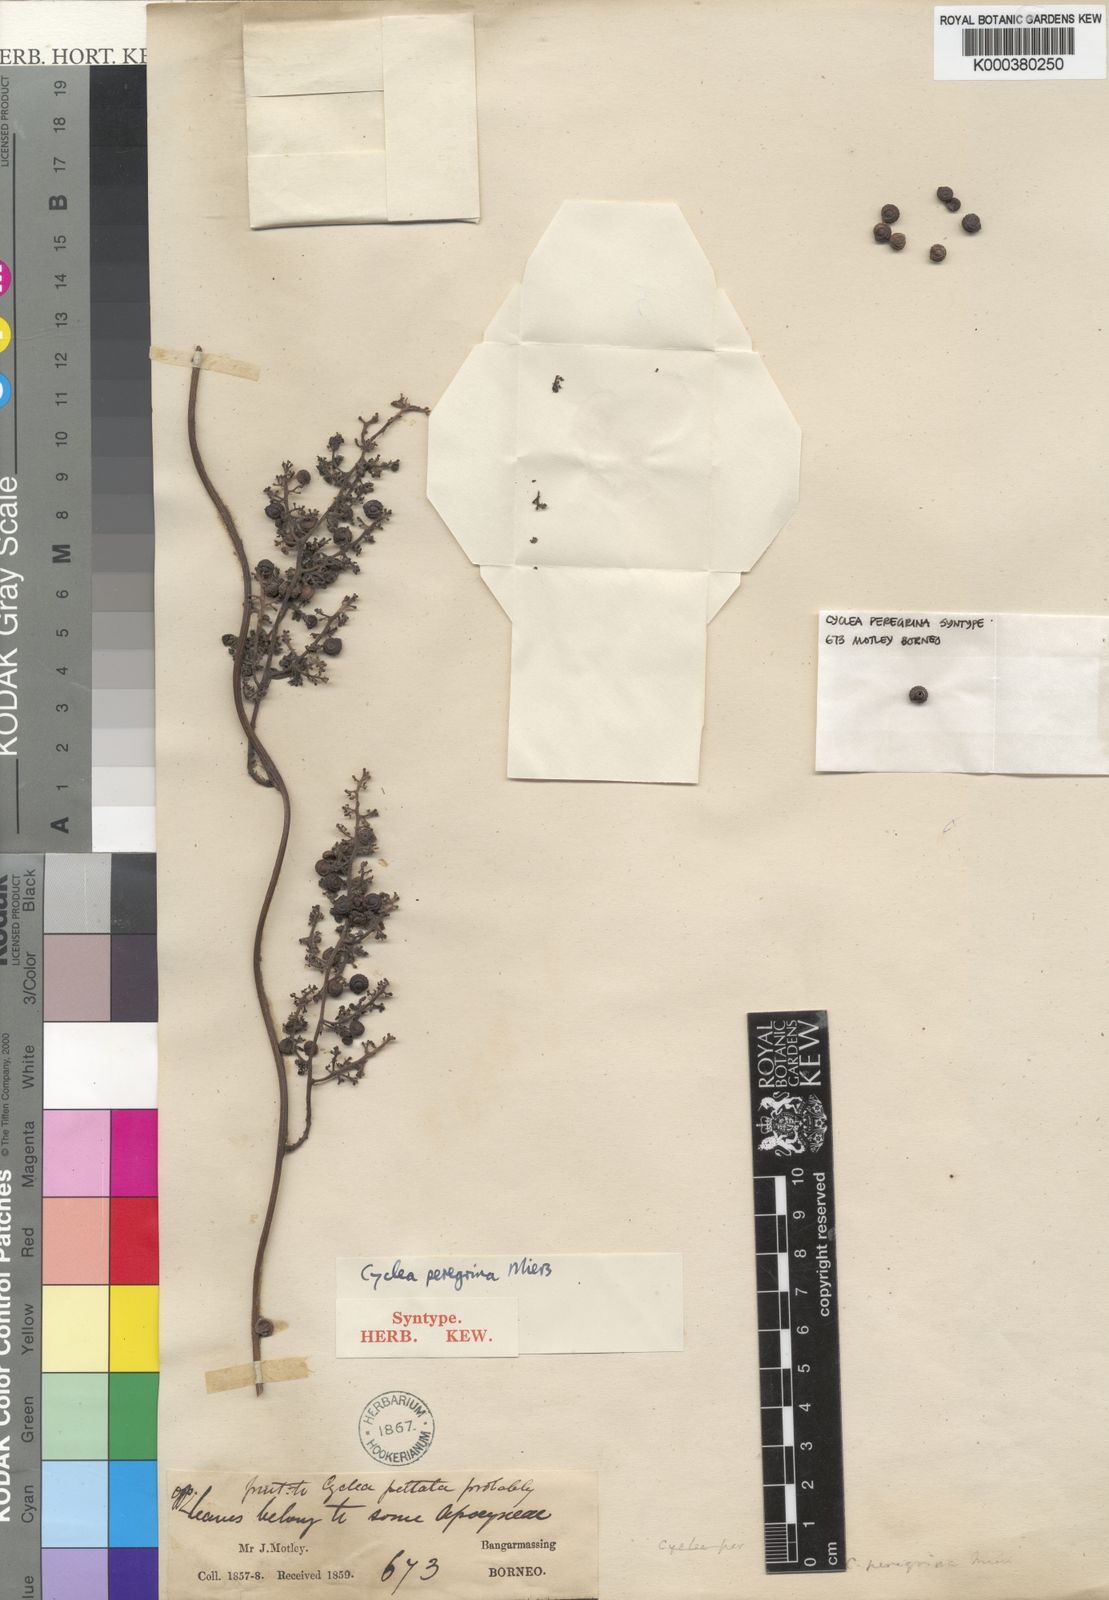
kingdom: Plantae
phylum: Tracheophyta
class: Magnoliopsida
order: Ranunculales
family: Menispermaceae
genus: Cyclea
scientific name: Cyclea peregrina
